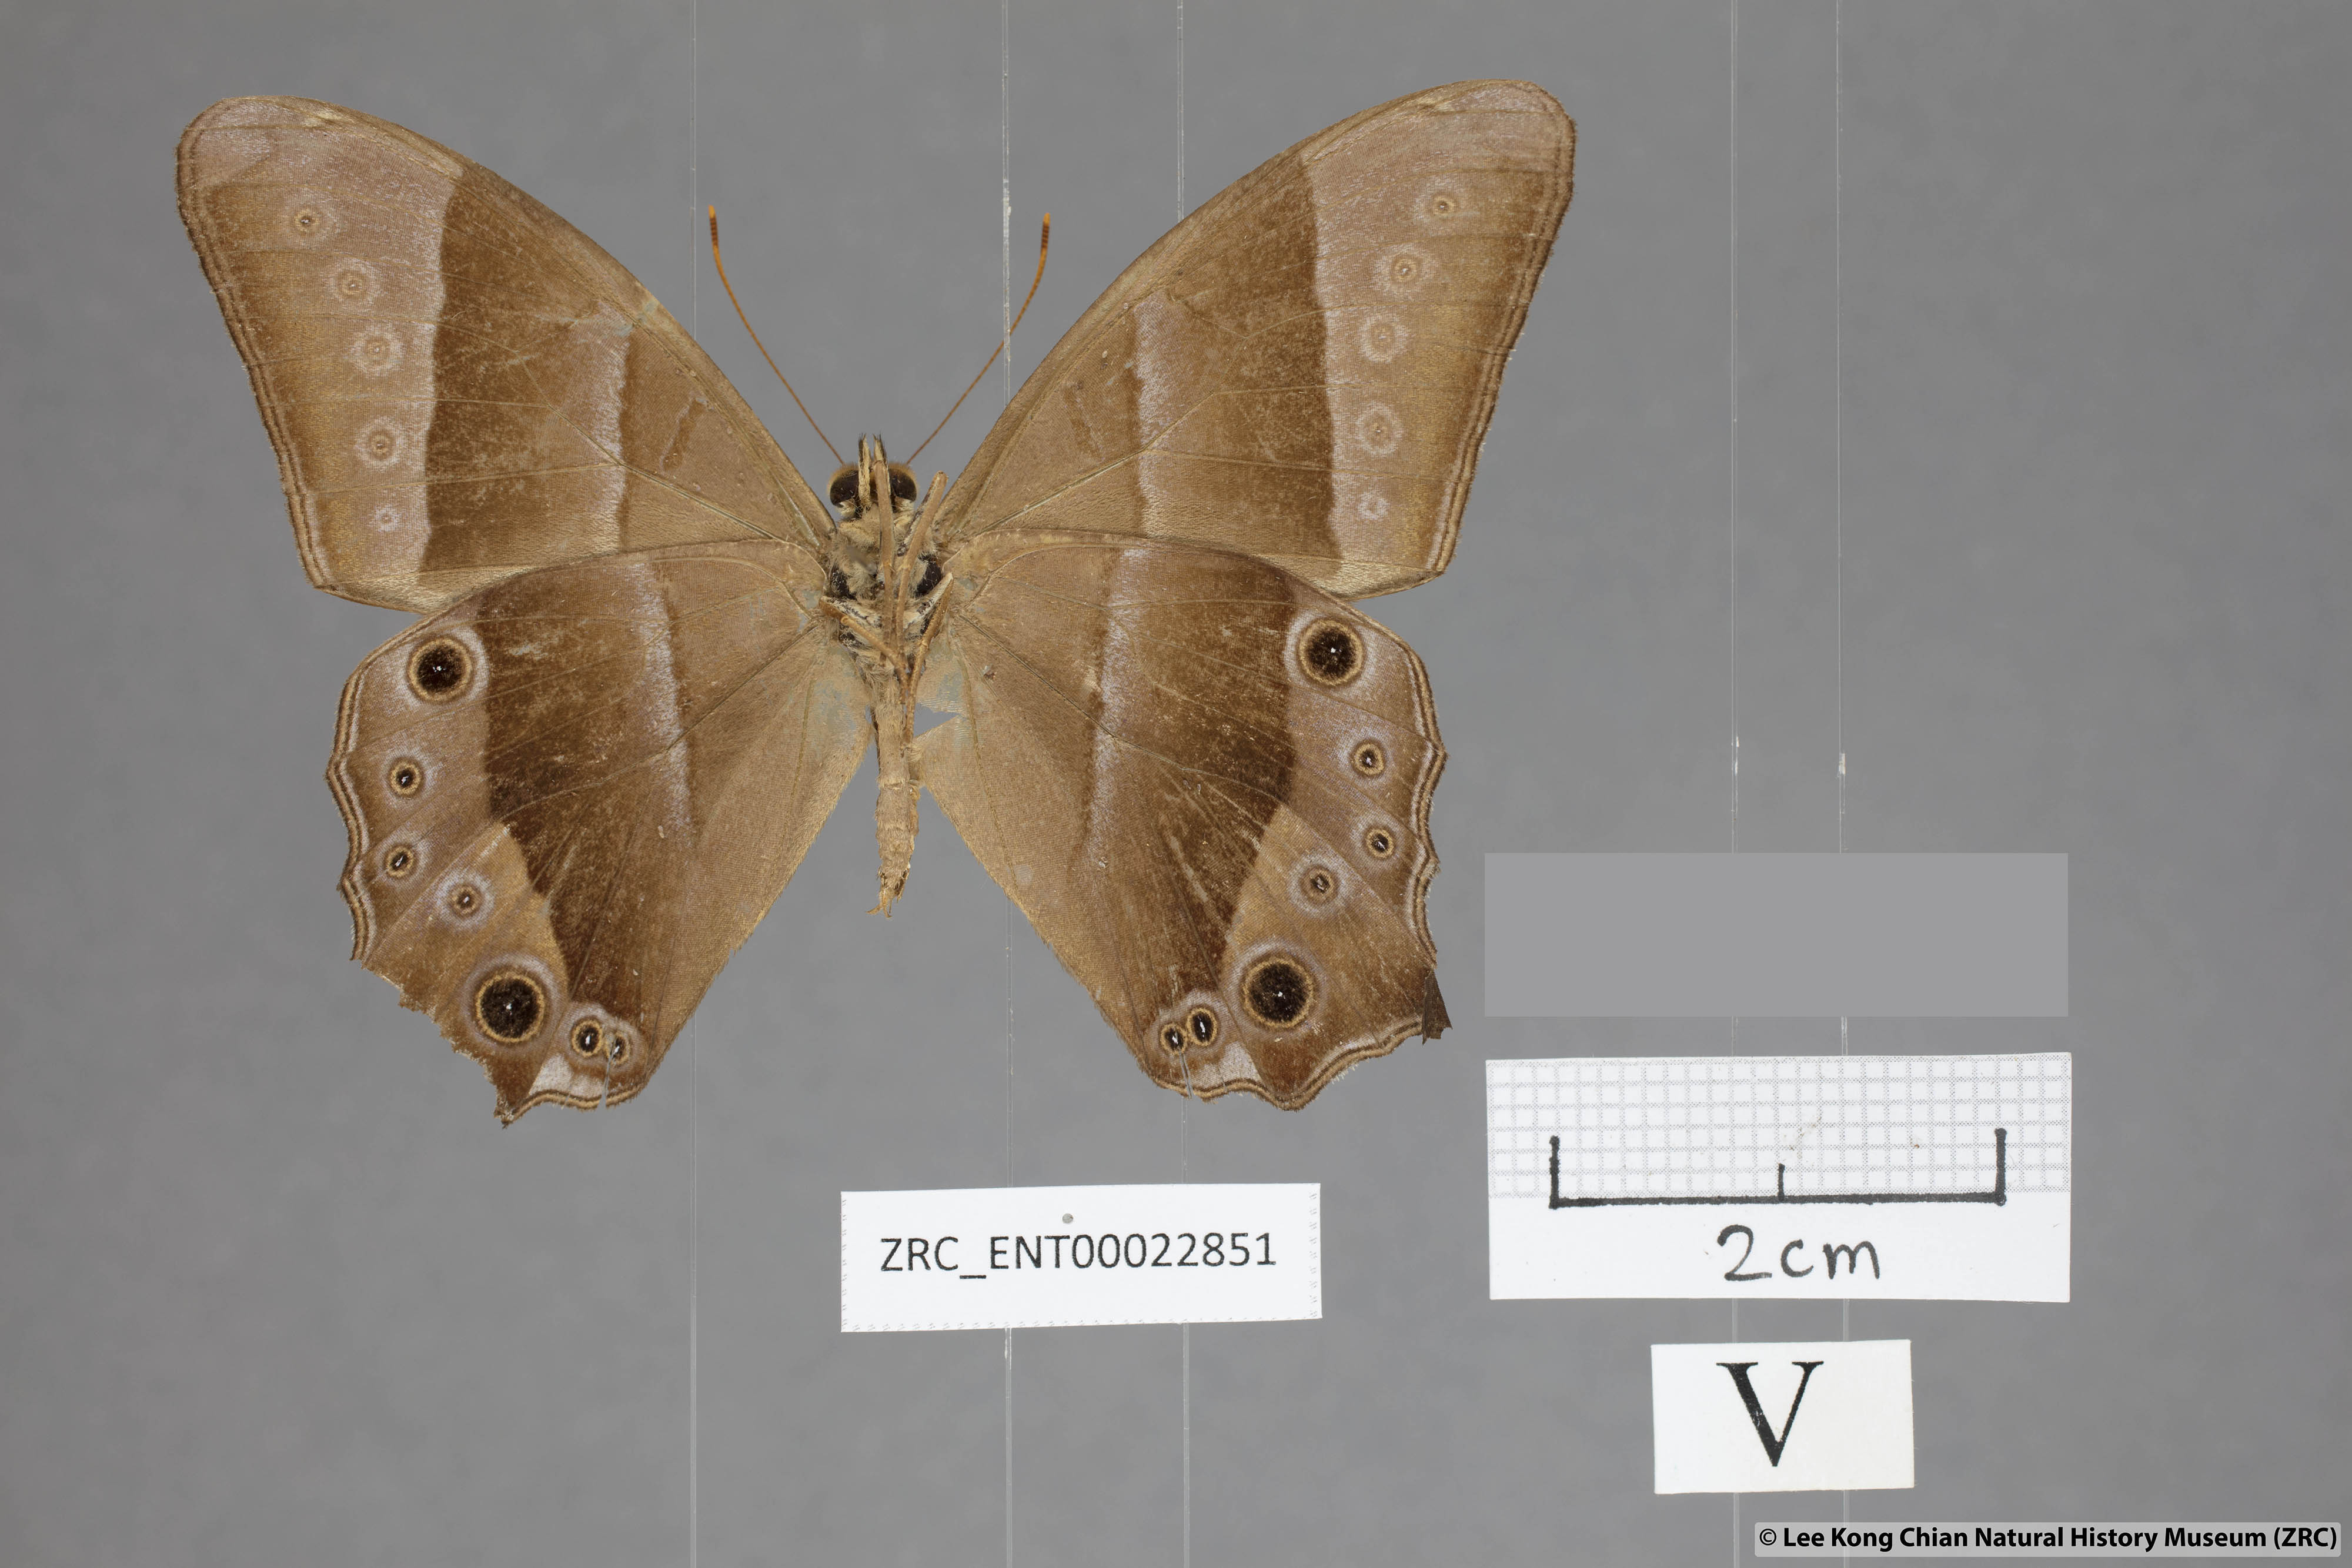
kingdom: Animalia
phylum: Arthropoda
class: Insecta
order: Lepidoptera
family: Nymphalidae
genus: Lethe
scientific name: Lethe vindhya
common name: Black forester
